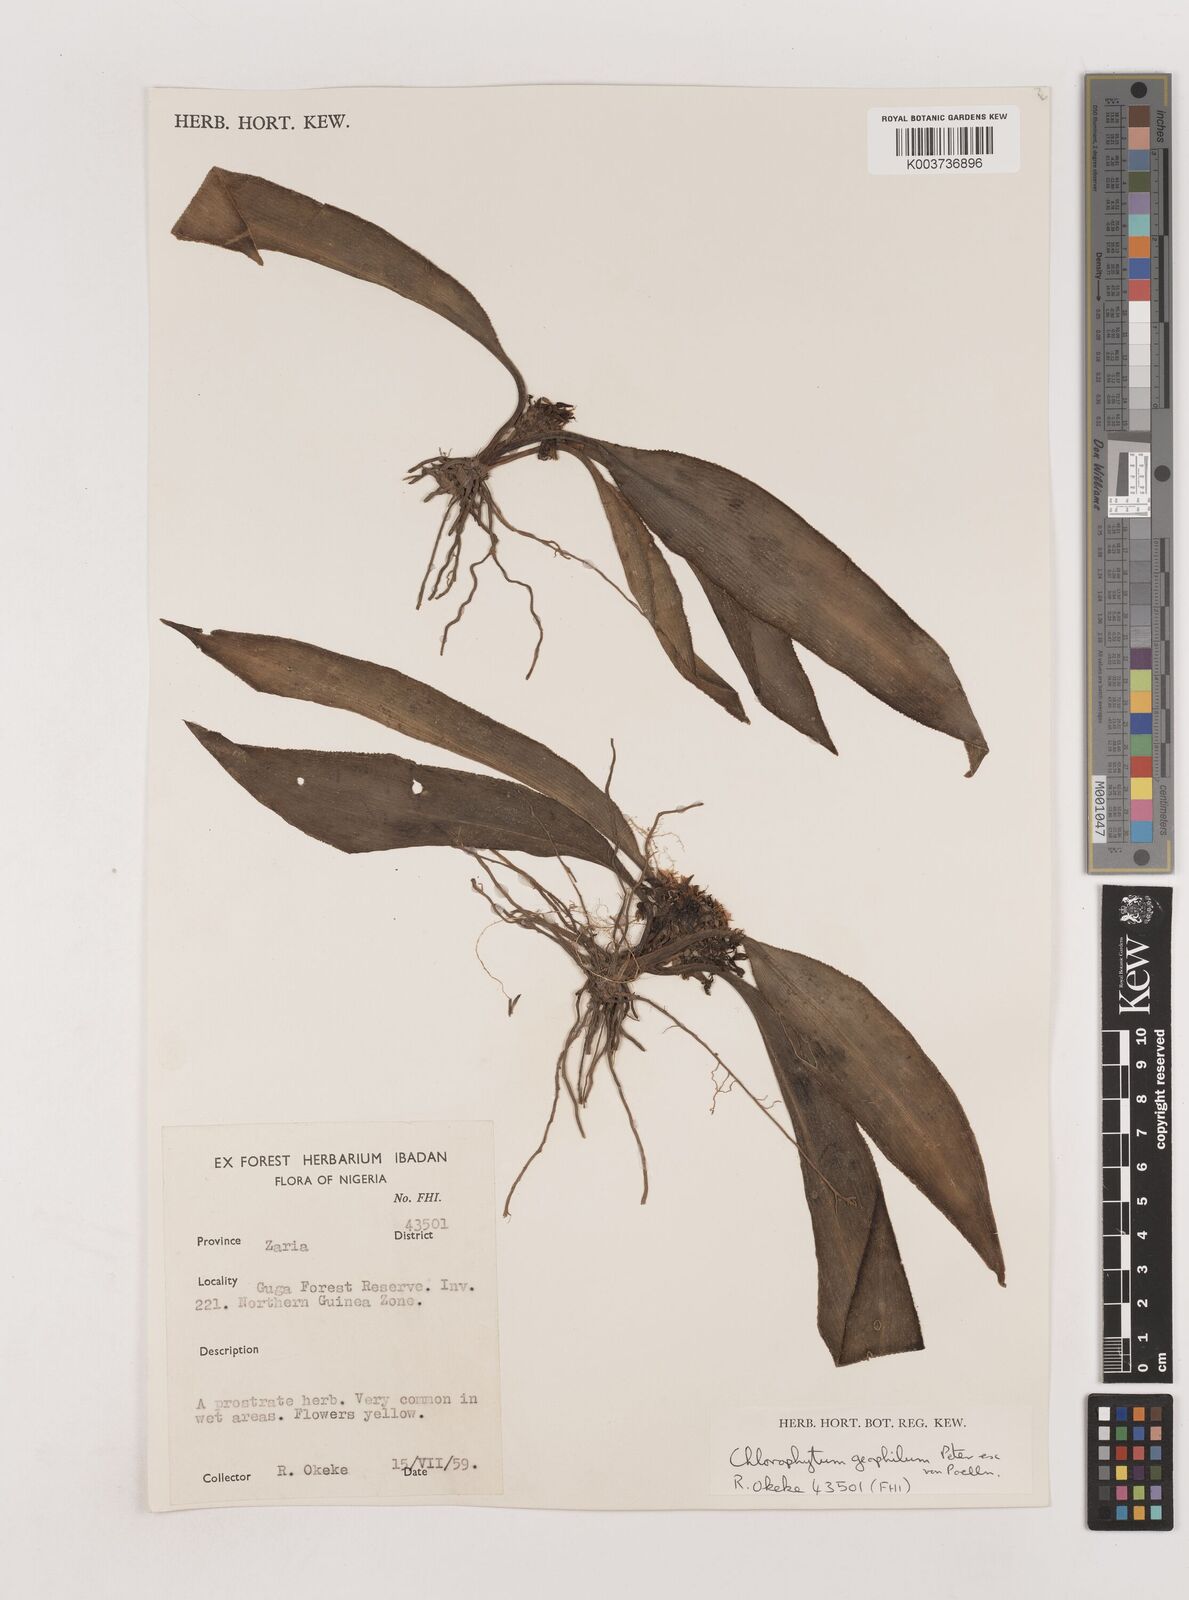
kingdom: Plantae
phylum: Tracheophyta
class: Liliopsida
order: Asparagales
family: Asparagaceae
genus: Chlorophytum
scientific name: Chlorophytum geophilum
